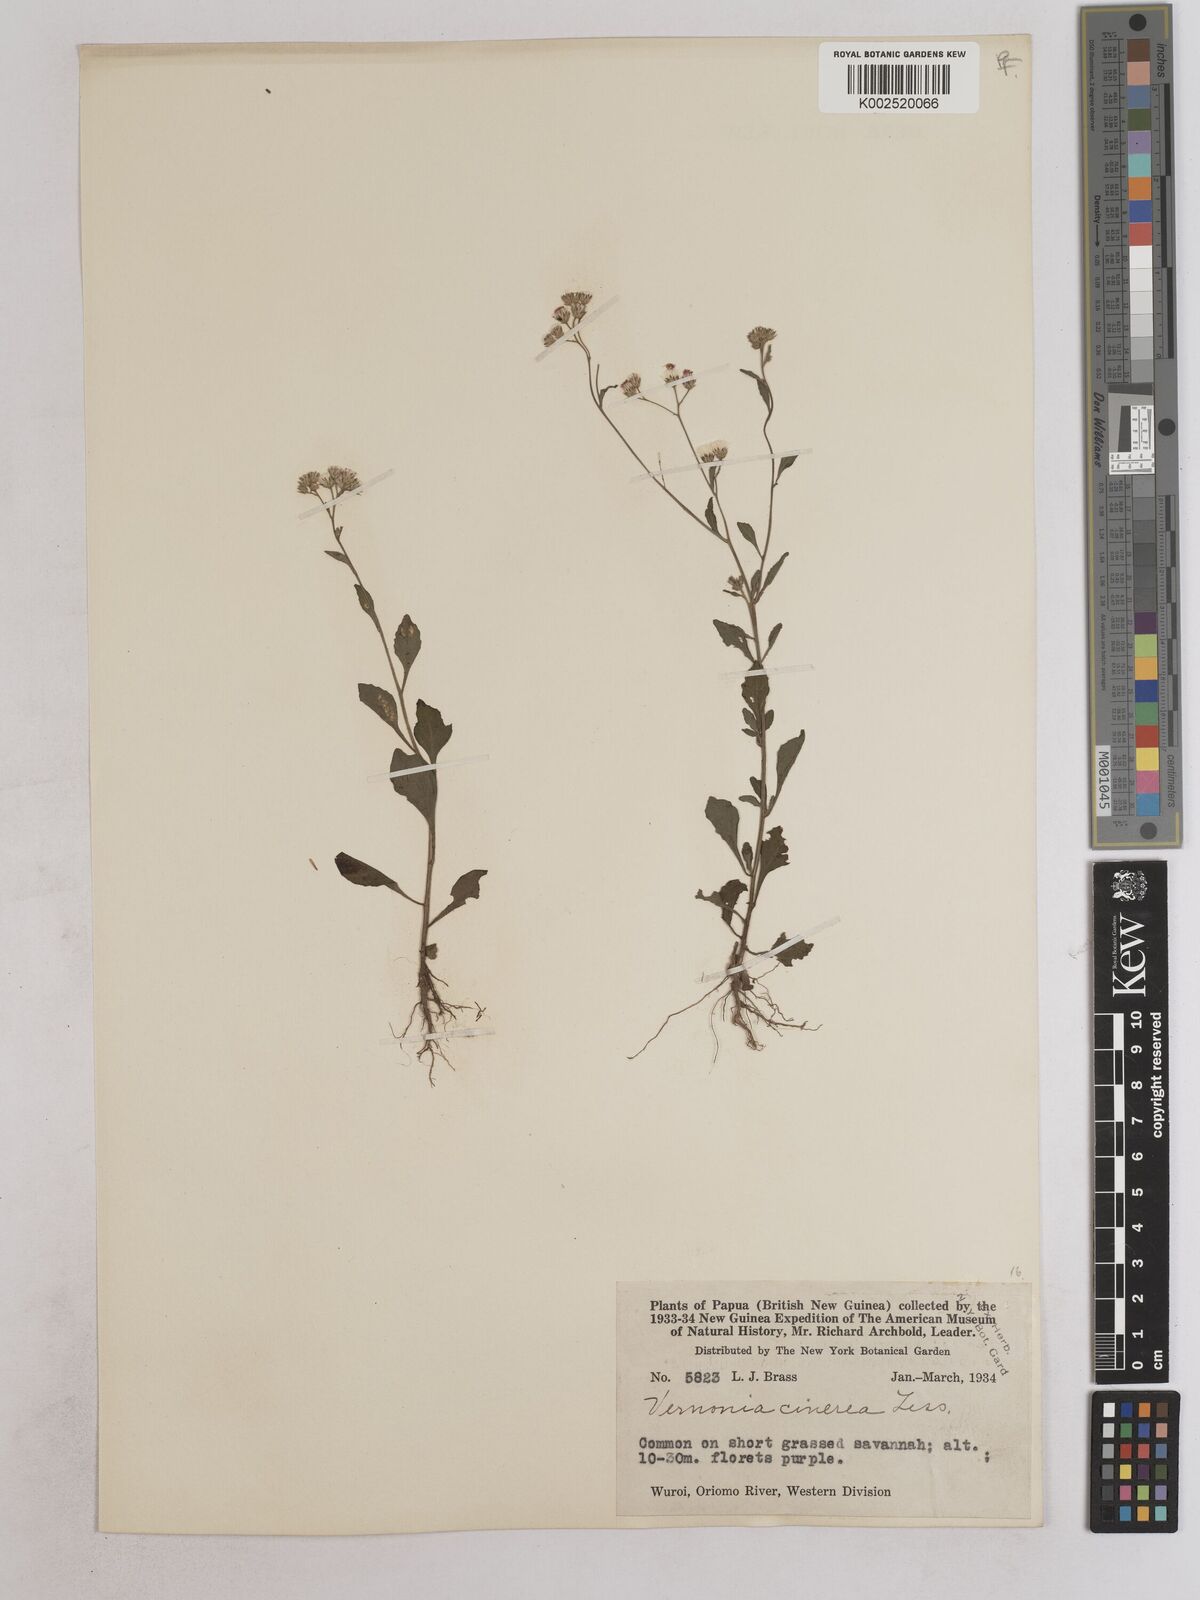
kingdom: Plantae
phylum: Tracheophyta
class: Magnoliopsida
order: Asterales
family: Asteraceae
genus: Cyanthillium
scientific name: Cyanthillium cinereum
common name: Little ironweed
